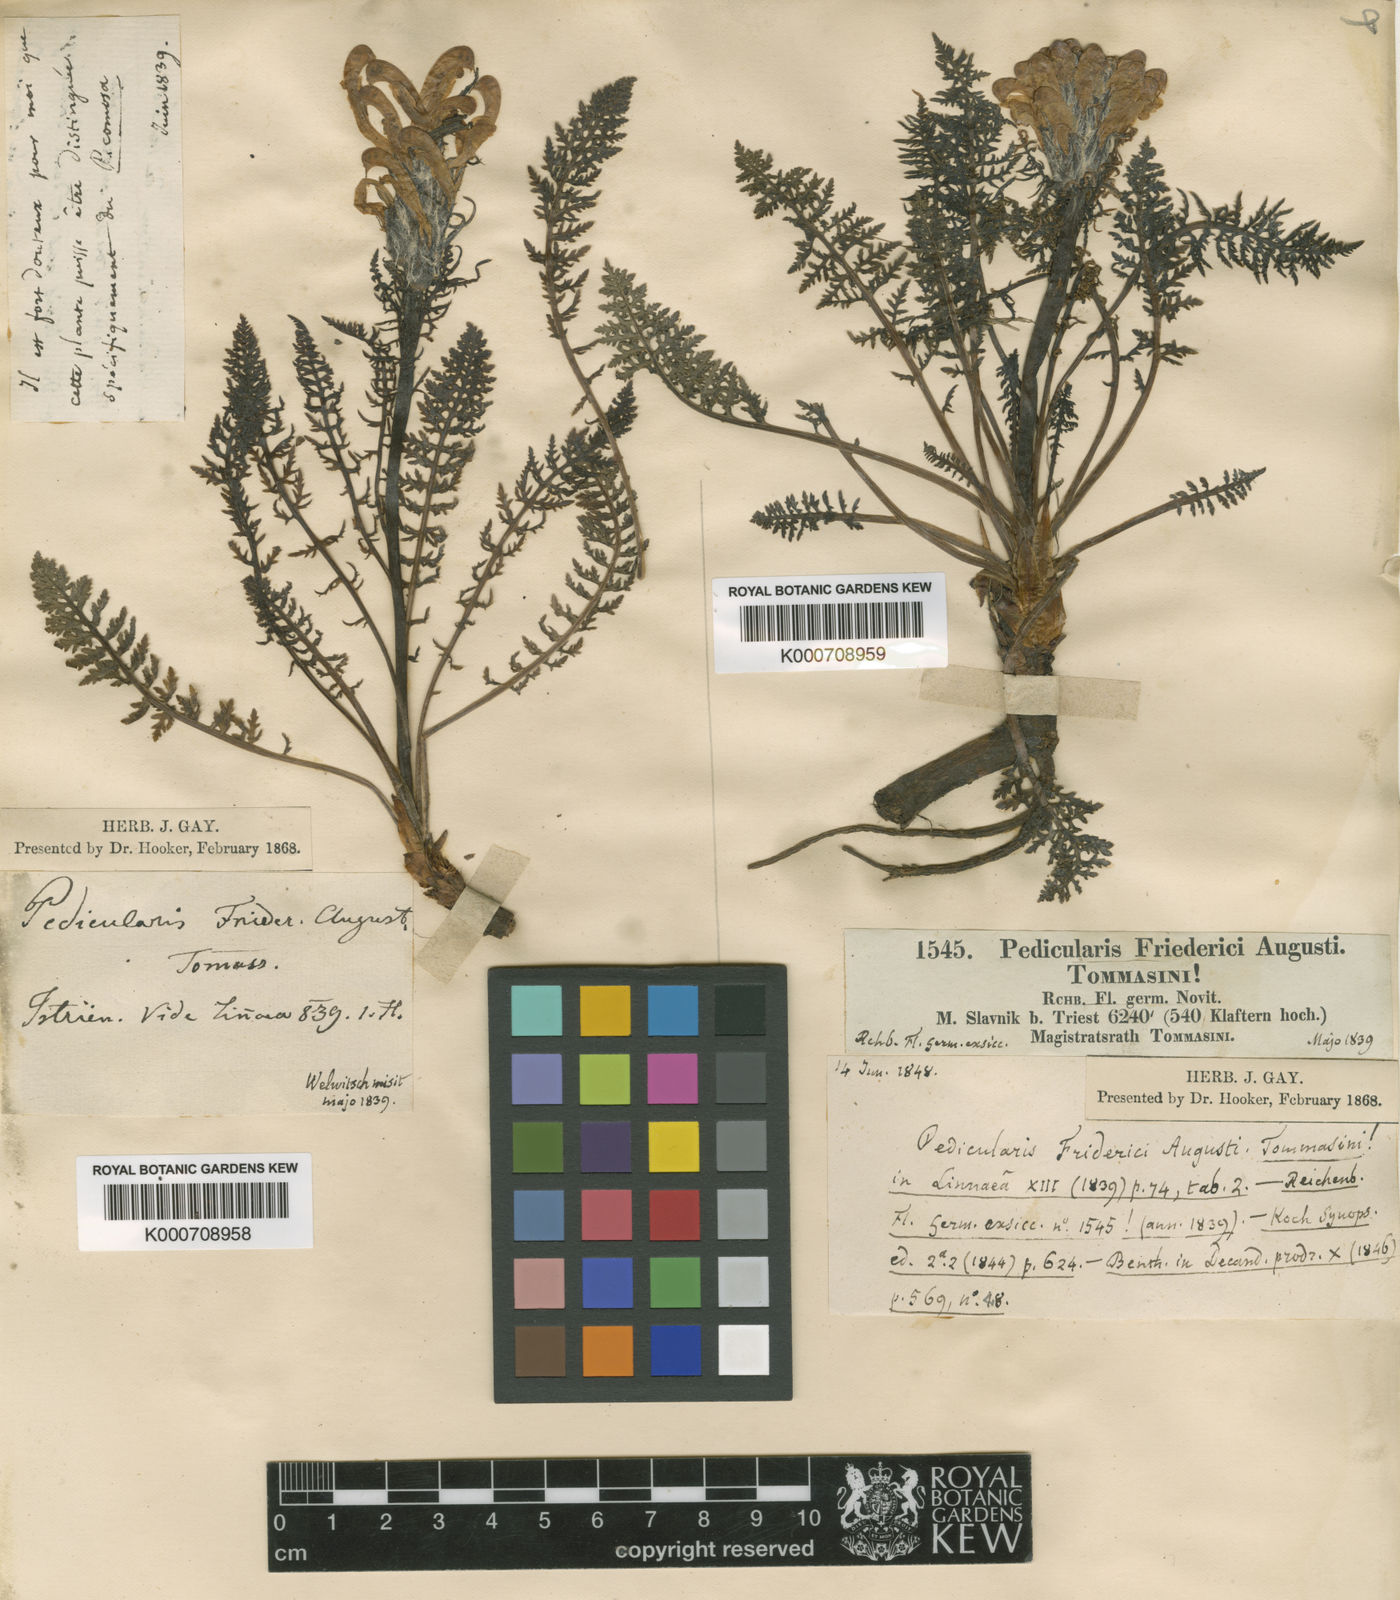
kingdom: Plantae
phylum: Tracheophyta
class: Magnoliopsida
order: Lamiales
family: Orobanchaceae
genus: Pedicularis
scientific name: Pedicularis friderici-augusti
